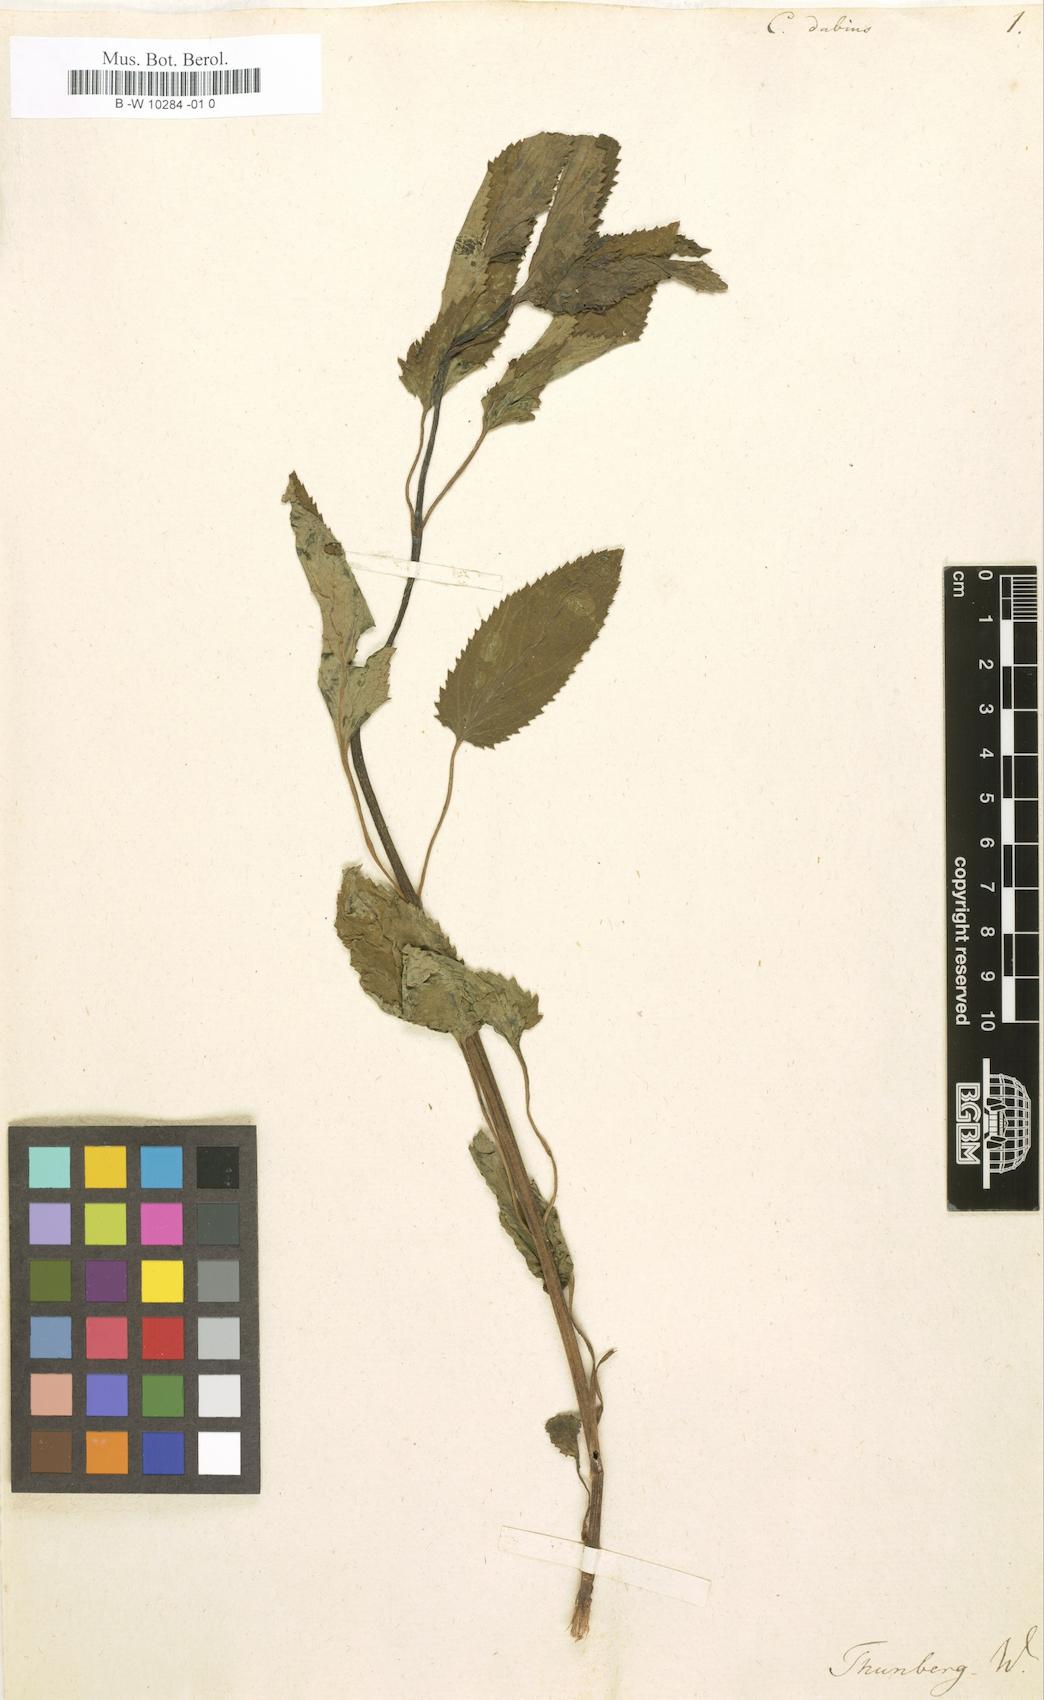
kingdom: Plantae
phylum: Tracheophyta
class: Magnoliopsida
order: Malvales
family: Malvaceae
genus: Corchorus
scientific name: Corchorus
